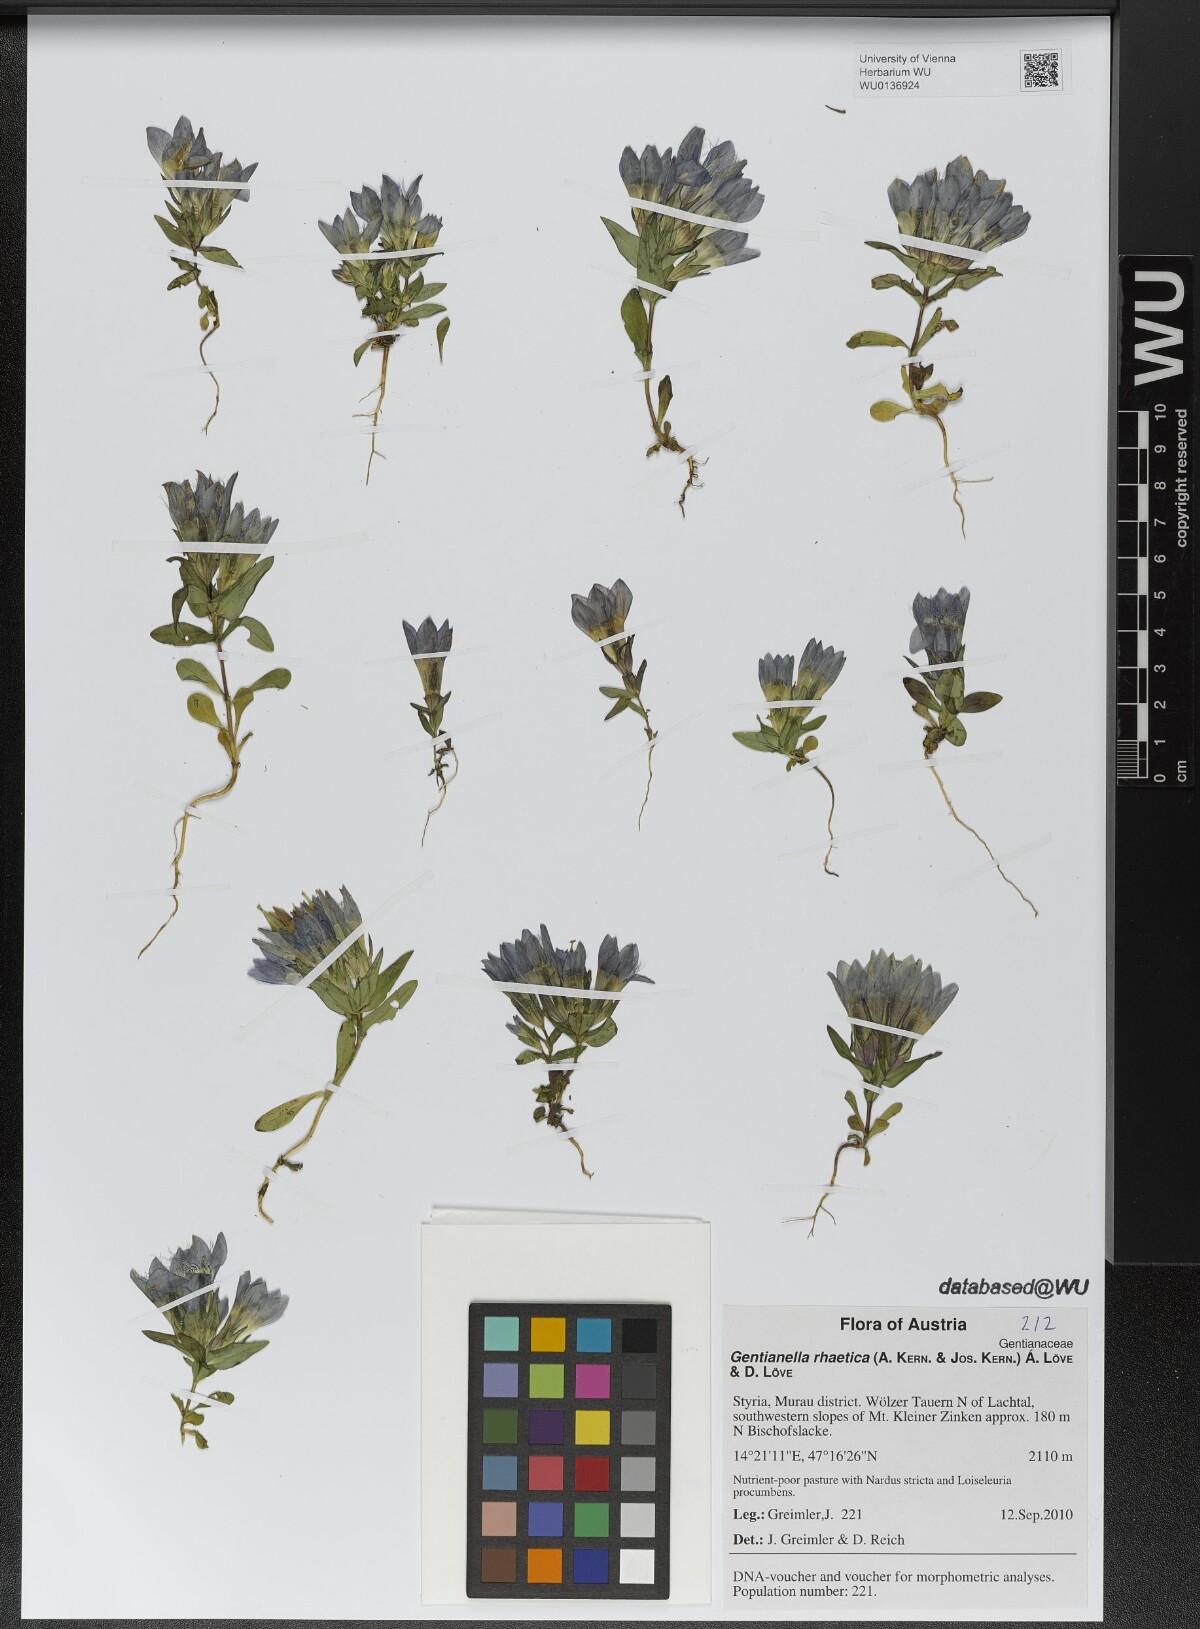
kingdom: Plantae
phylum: Tracheophyta
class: Magnoliopsida
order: Gentianales
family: Gentianaceae
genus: Gentianella
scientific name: Gentianella rhaetica
